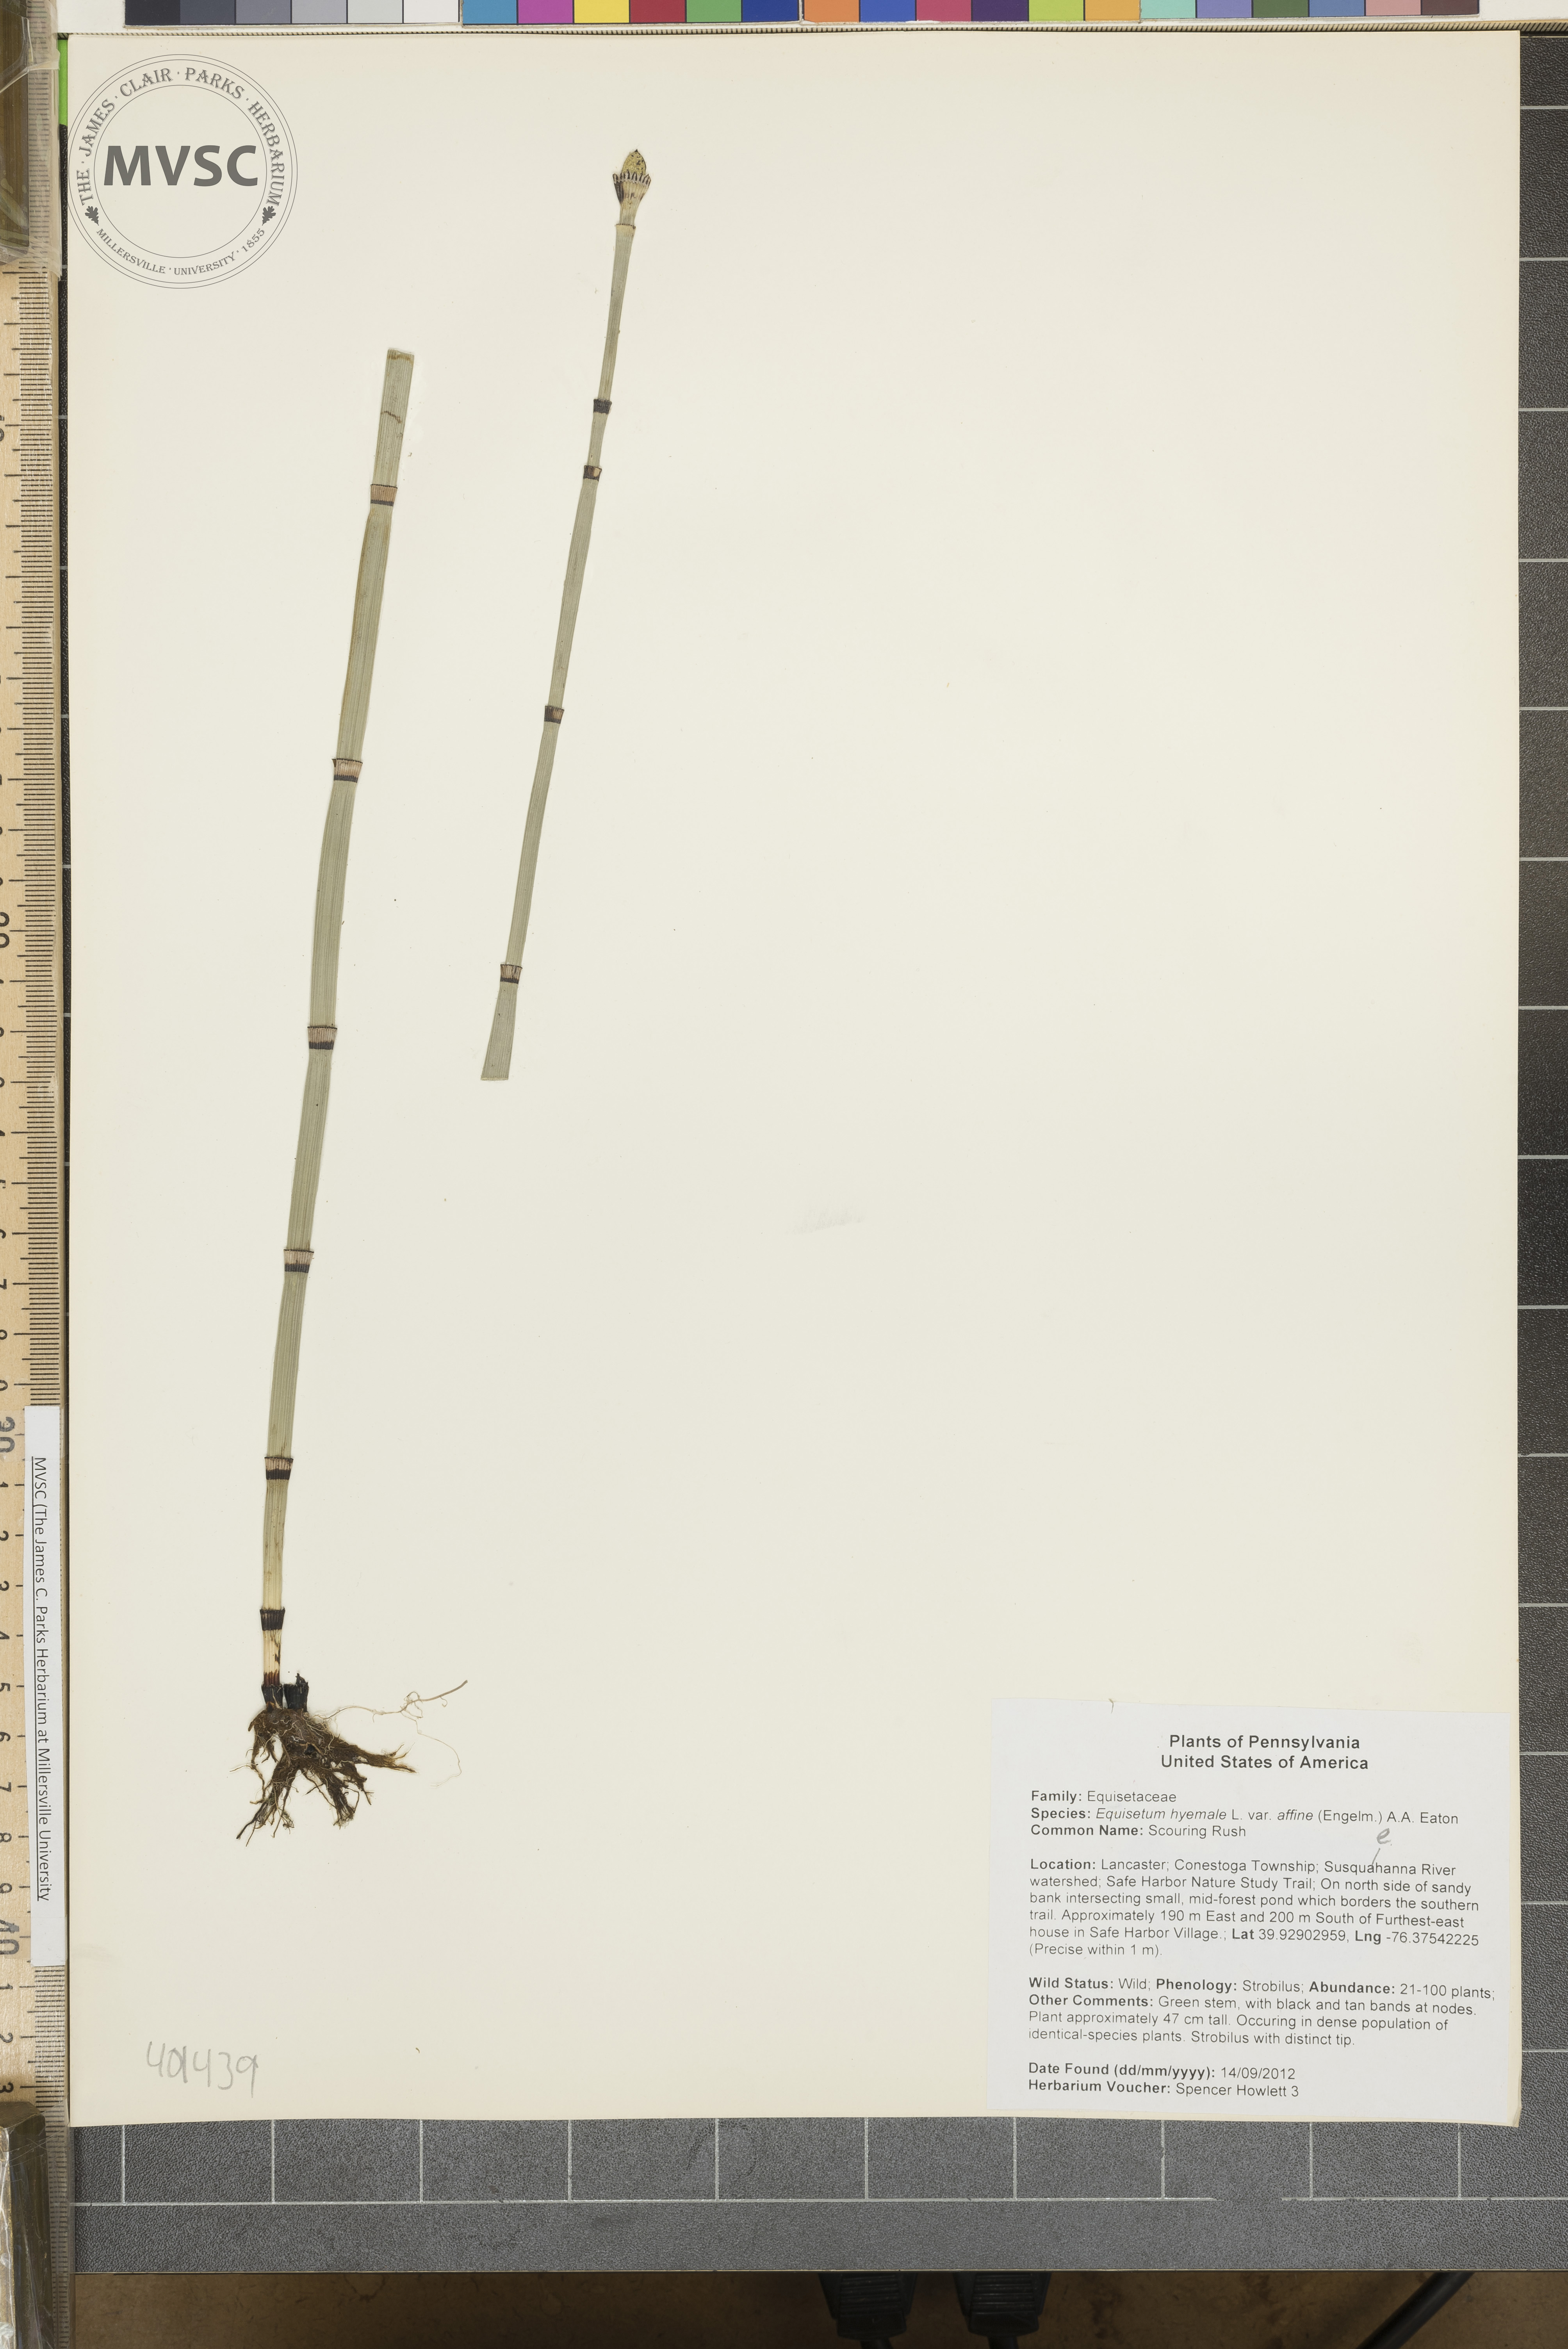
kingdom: Plantae
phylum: Tracheophyta
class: Polypodiopsida
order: Equisetales
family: Equisetaceae
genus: Equisetum
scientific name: Equisetum hyemale
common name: Scouring Rush
